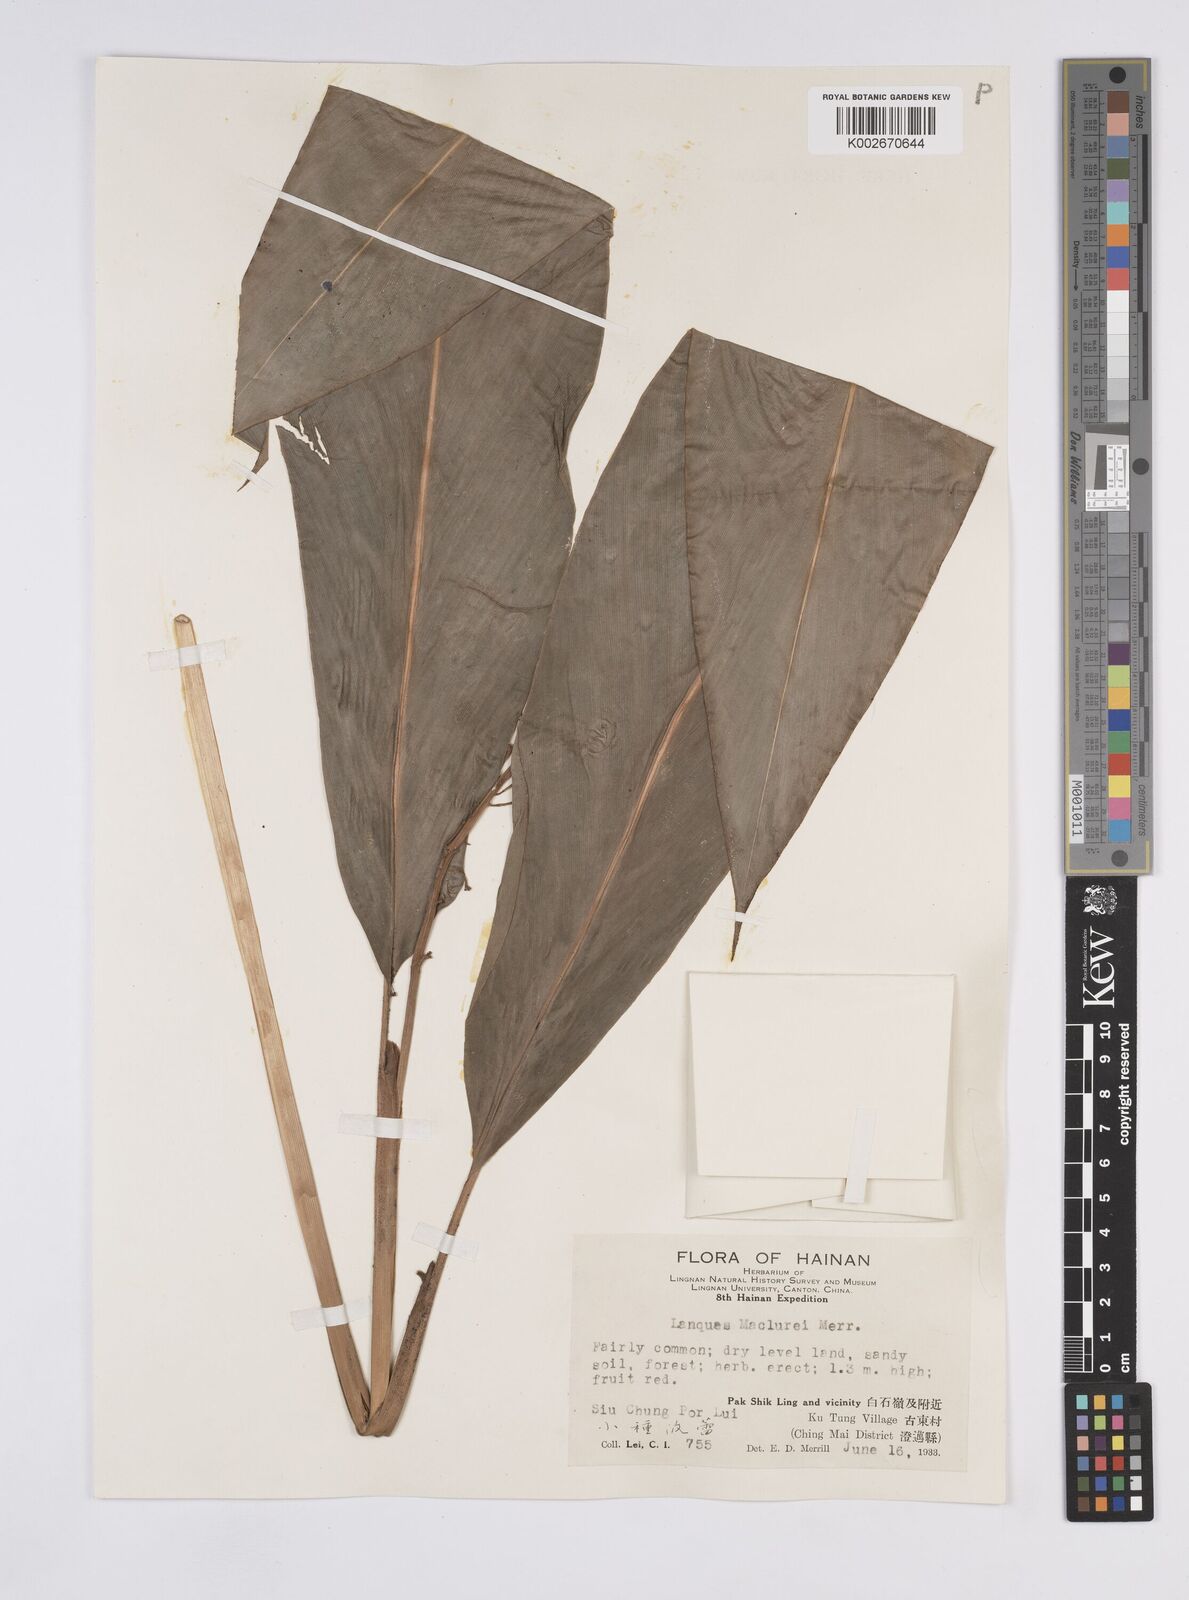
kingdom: Plantae
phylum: Tracheophyta
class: Liliopsida
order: Zingiberales
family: Zingiberaceae
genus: Alpinia
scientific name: Alpinia maclurei
